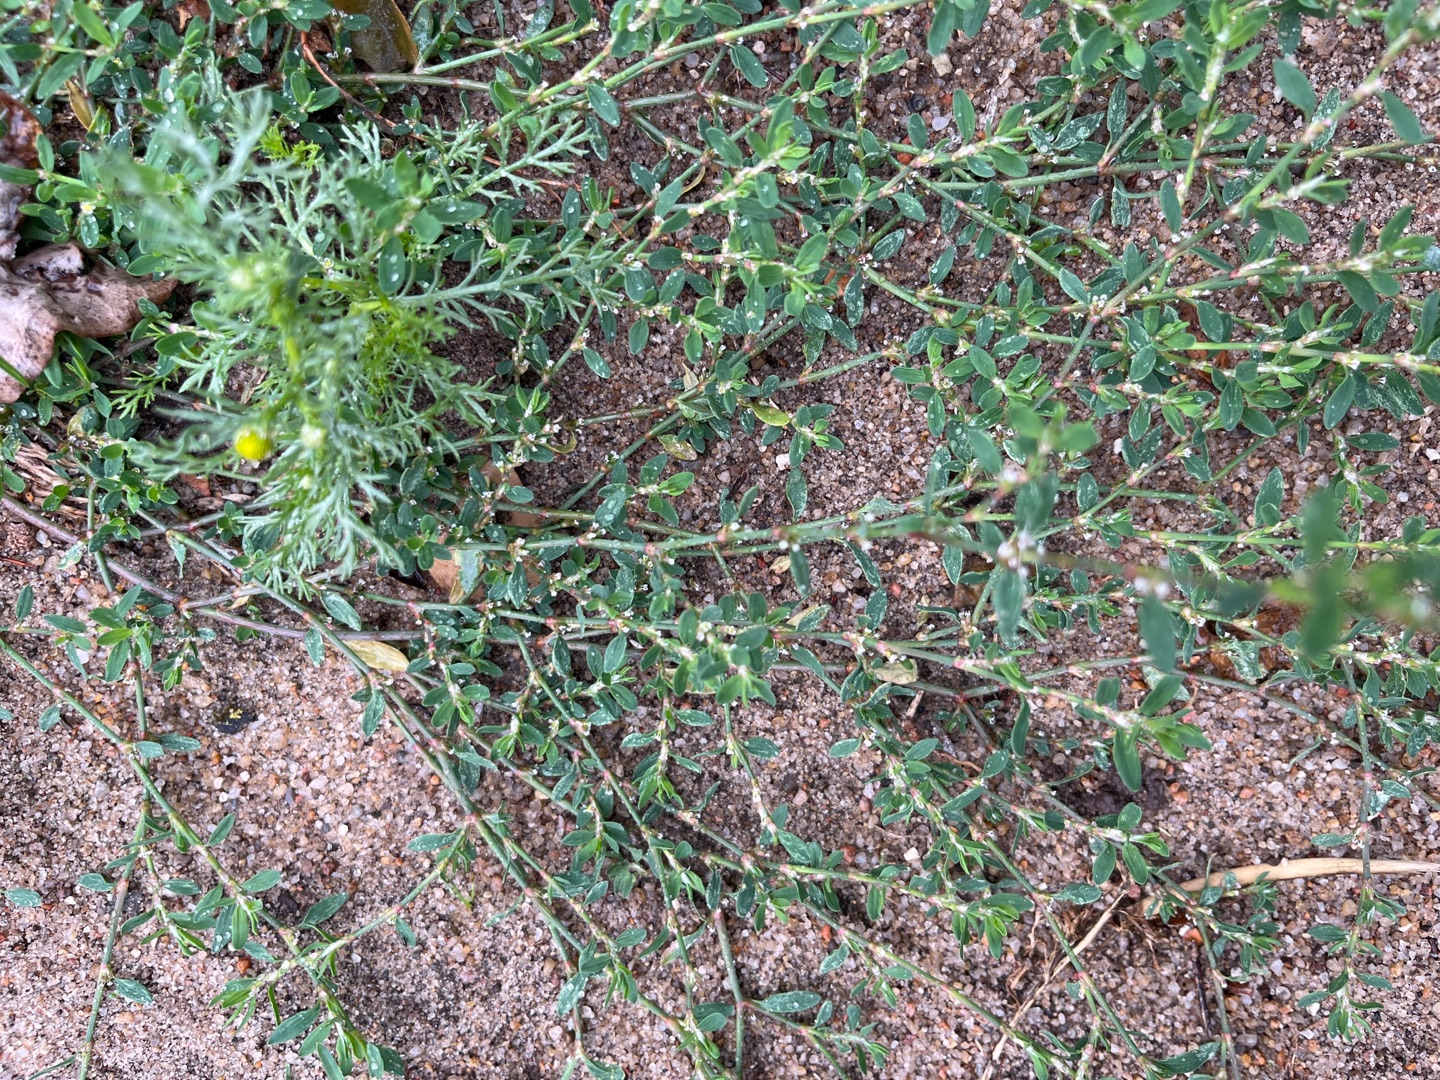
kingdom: Plantae
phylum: Tracheophyta
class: Magnoliopsida
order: Caryophyllales
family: Polygonaceae
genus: Polygonum
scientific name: Polygonum arenastrum
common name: Liggende vej-pileurt
